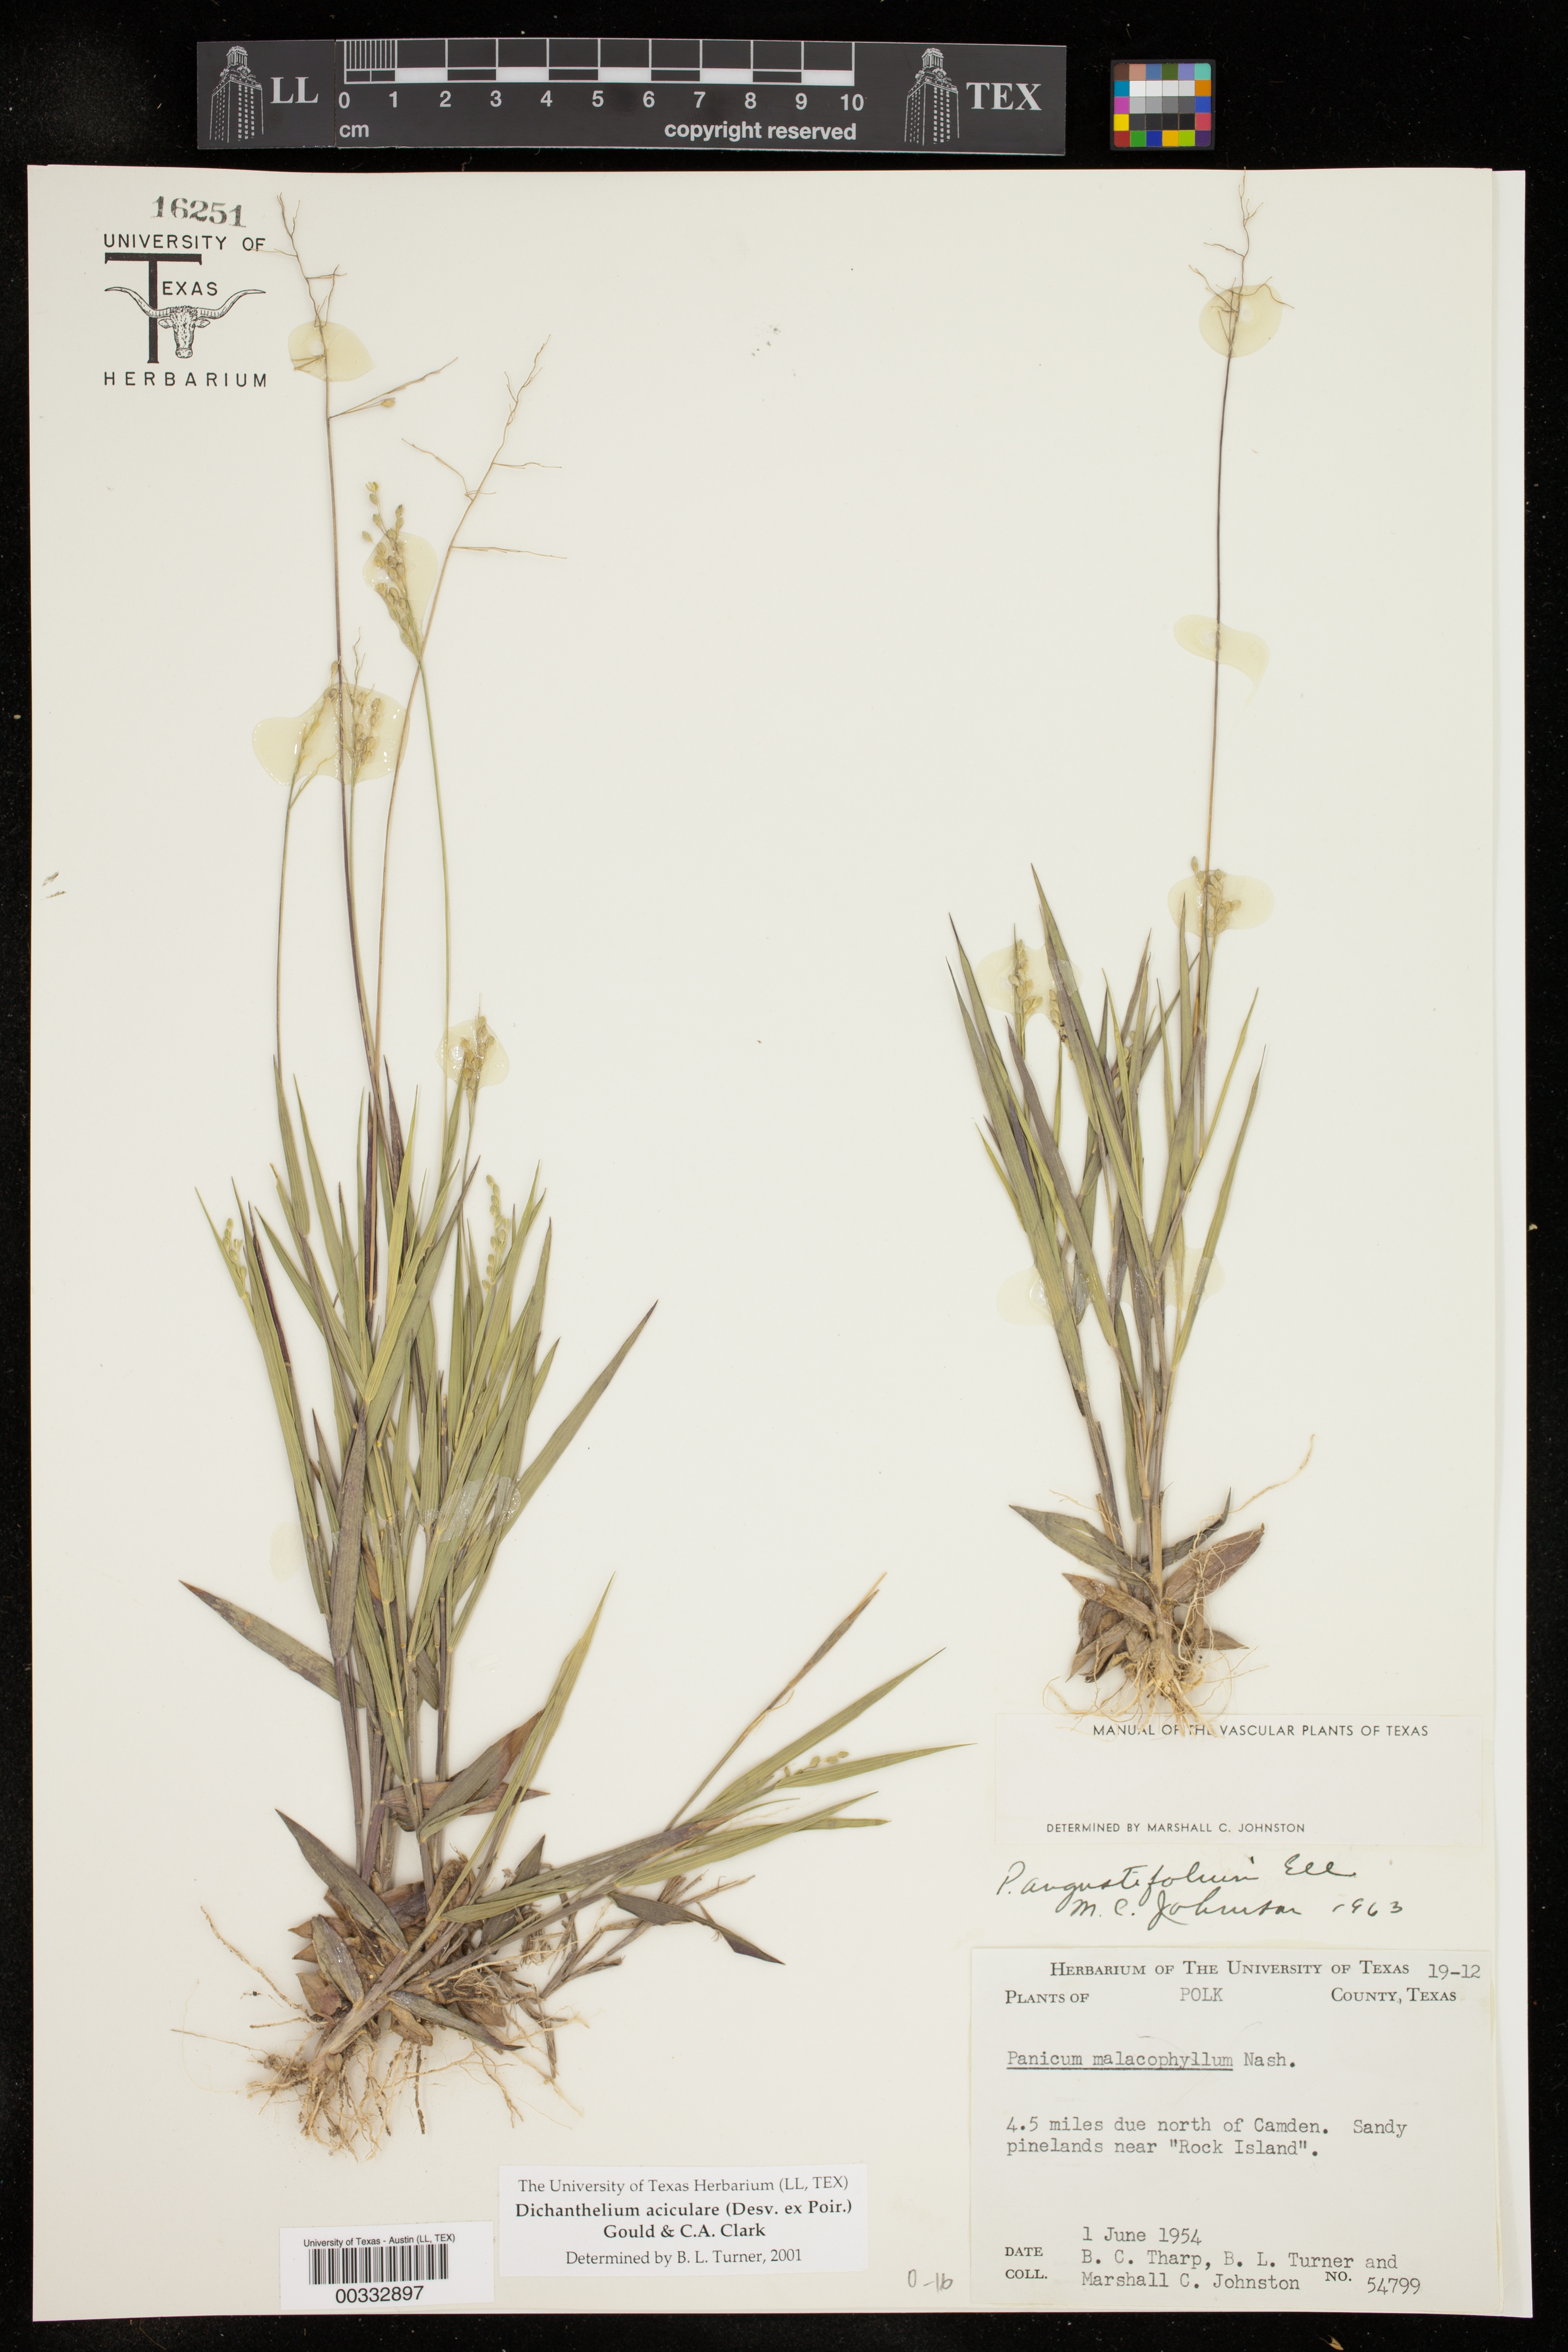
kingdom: Plantae
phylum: Tracheophyta
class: Liliopsida
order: Poales
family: Poaceae
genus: Dichanthelium
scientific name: Dichanthelium aciculare
